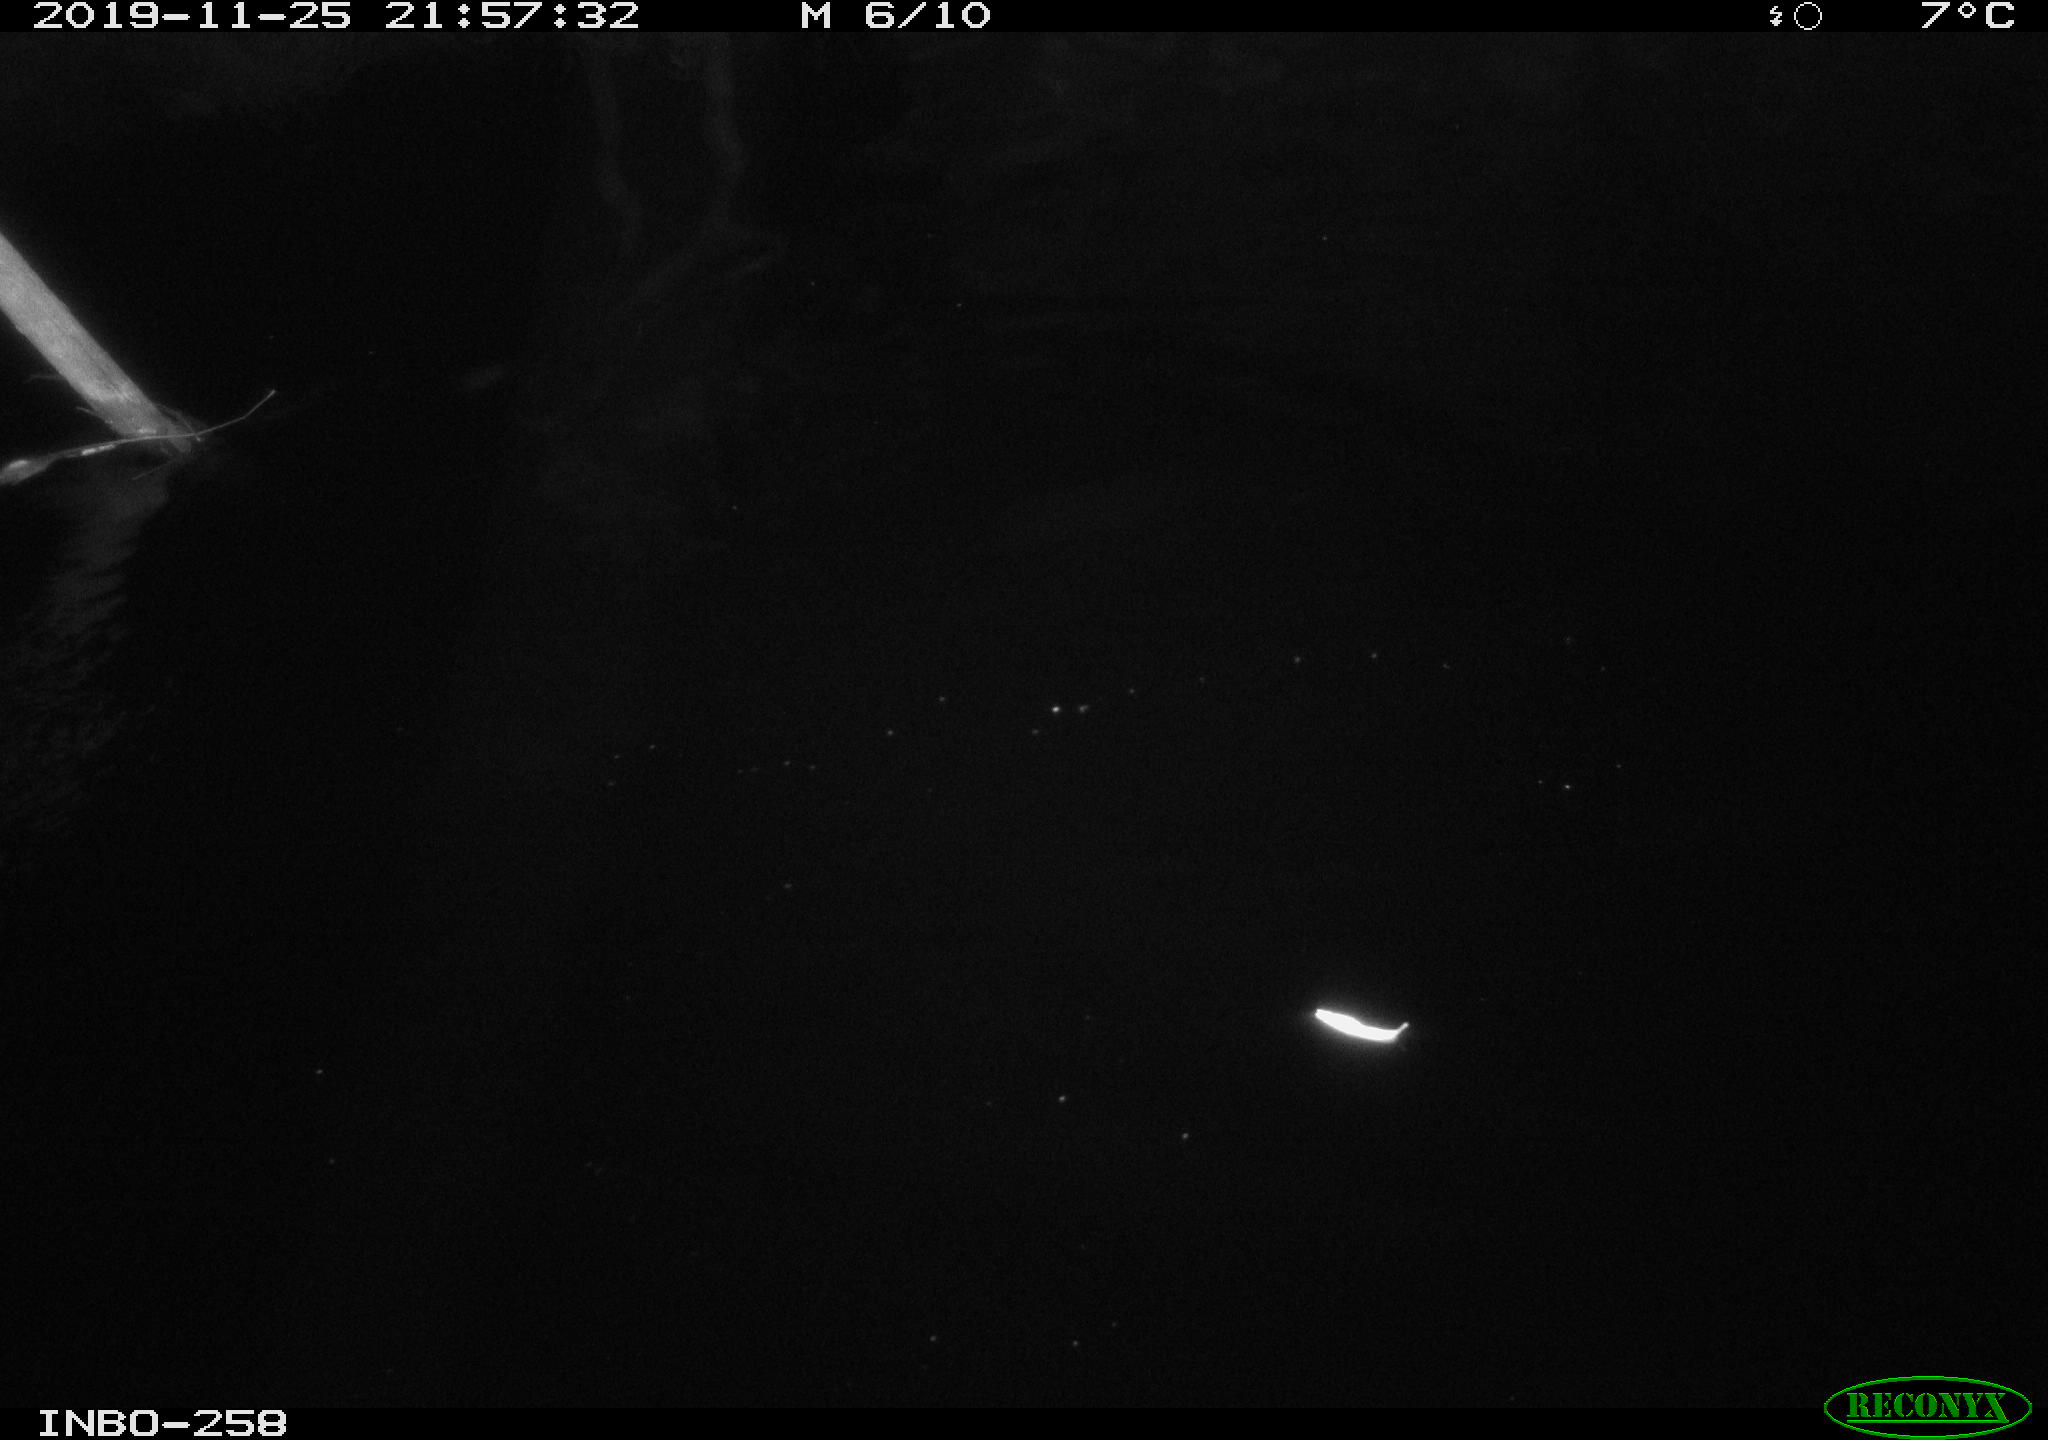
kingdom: Animalia
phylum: Chordata
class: Aves
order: Anseriformes
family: Anatidae
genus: Anas
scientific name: Anas platyrhynchos
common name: Mallard
